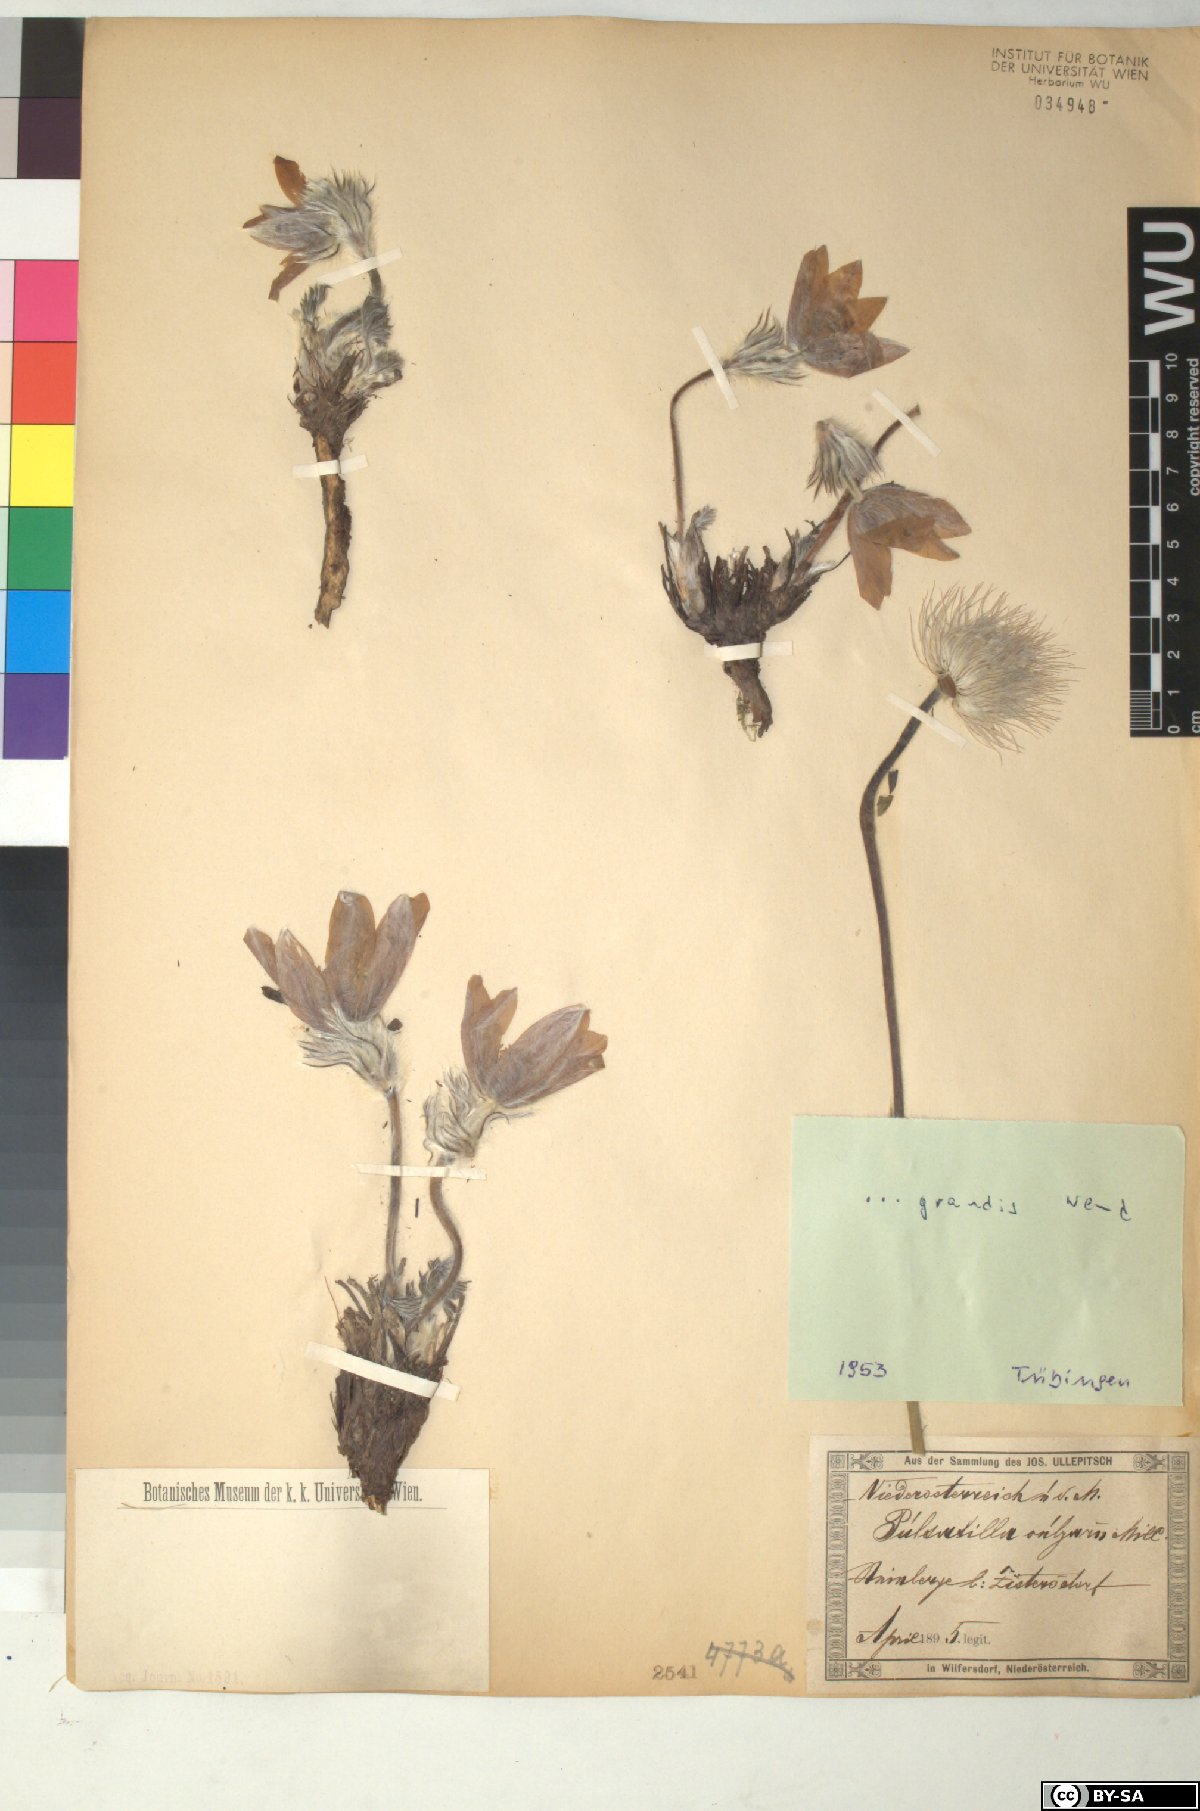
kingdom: Plantae
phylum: Tracheophyta
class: Magnoliopsida
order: Ranunculales
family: Ranunculaceae
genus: Pulsatilla
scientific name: Pulsatilla grandis
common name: Greater pasque flower
